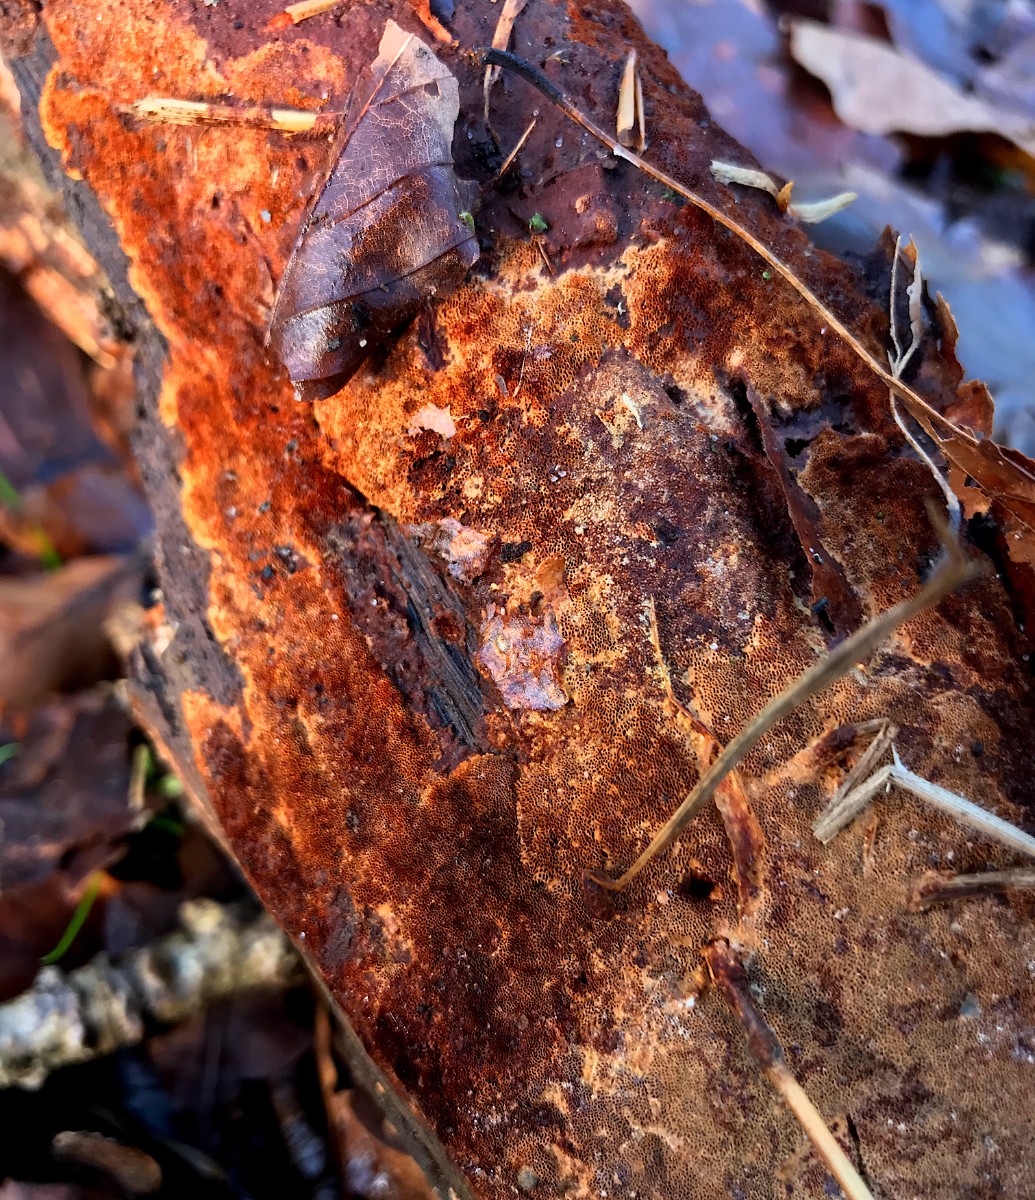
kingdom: Fungi
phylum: Basidiomycota
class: Agaricomycetes
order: Hymenochaetales
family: Hymenochaetaceae
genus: Fuscoporia
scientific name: Fuscoporia ferrea
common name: skorpe-ildporesvamp
